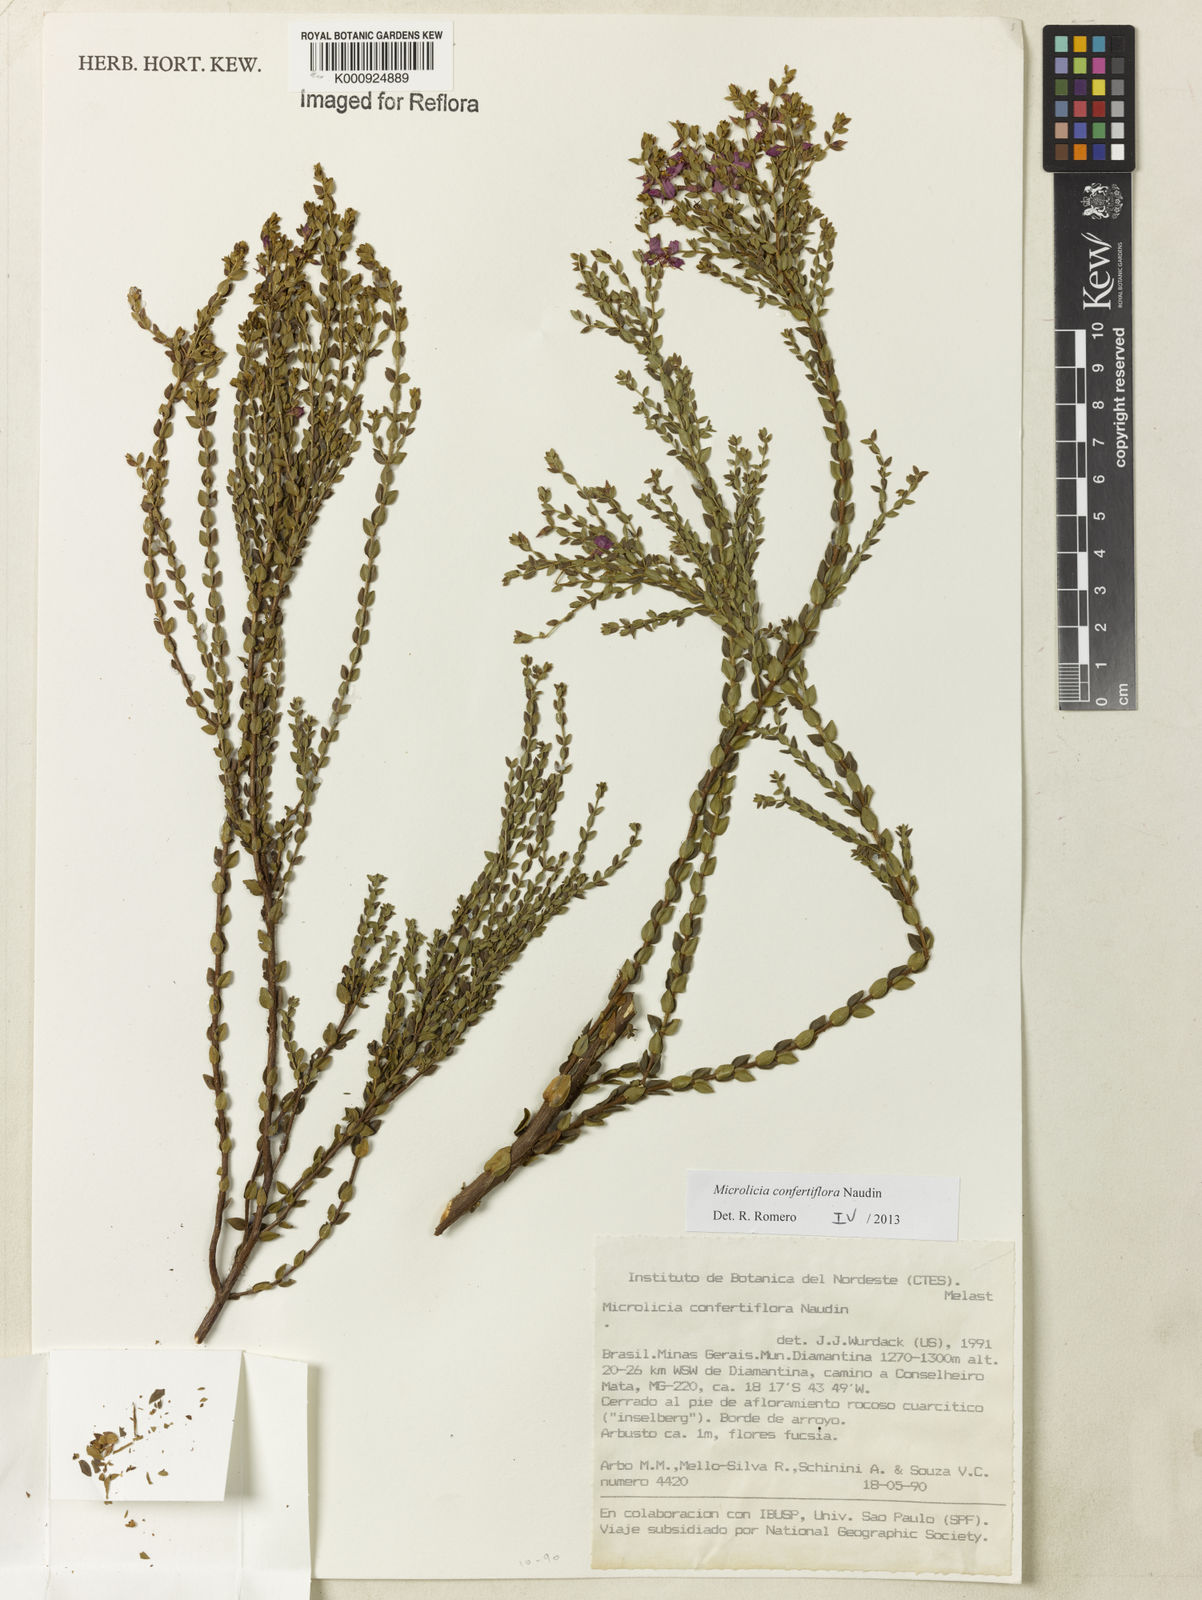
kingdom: Plantae
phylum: Tracheophyta
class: Magnoliopsida
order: Myrtales
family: Melastomataceae
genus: Microlicia
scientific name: Microlicia confertiflora
